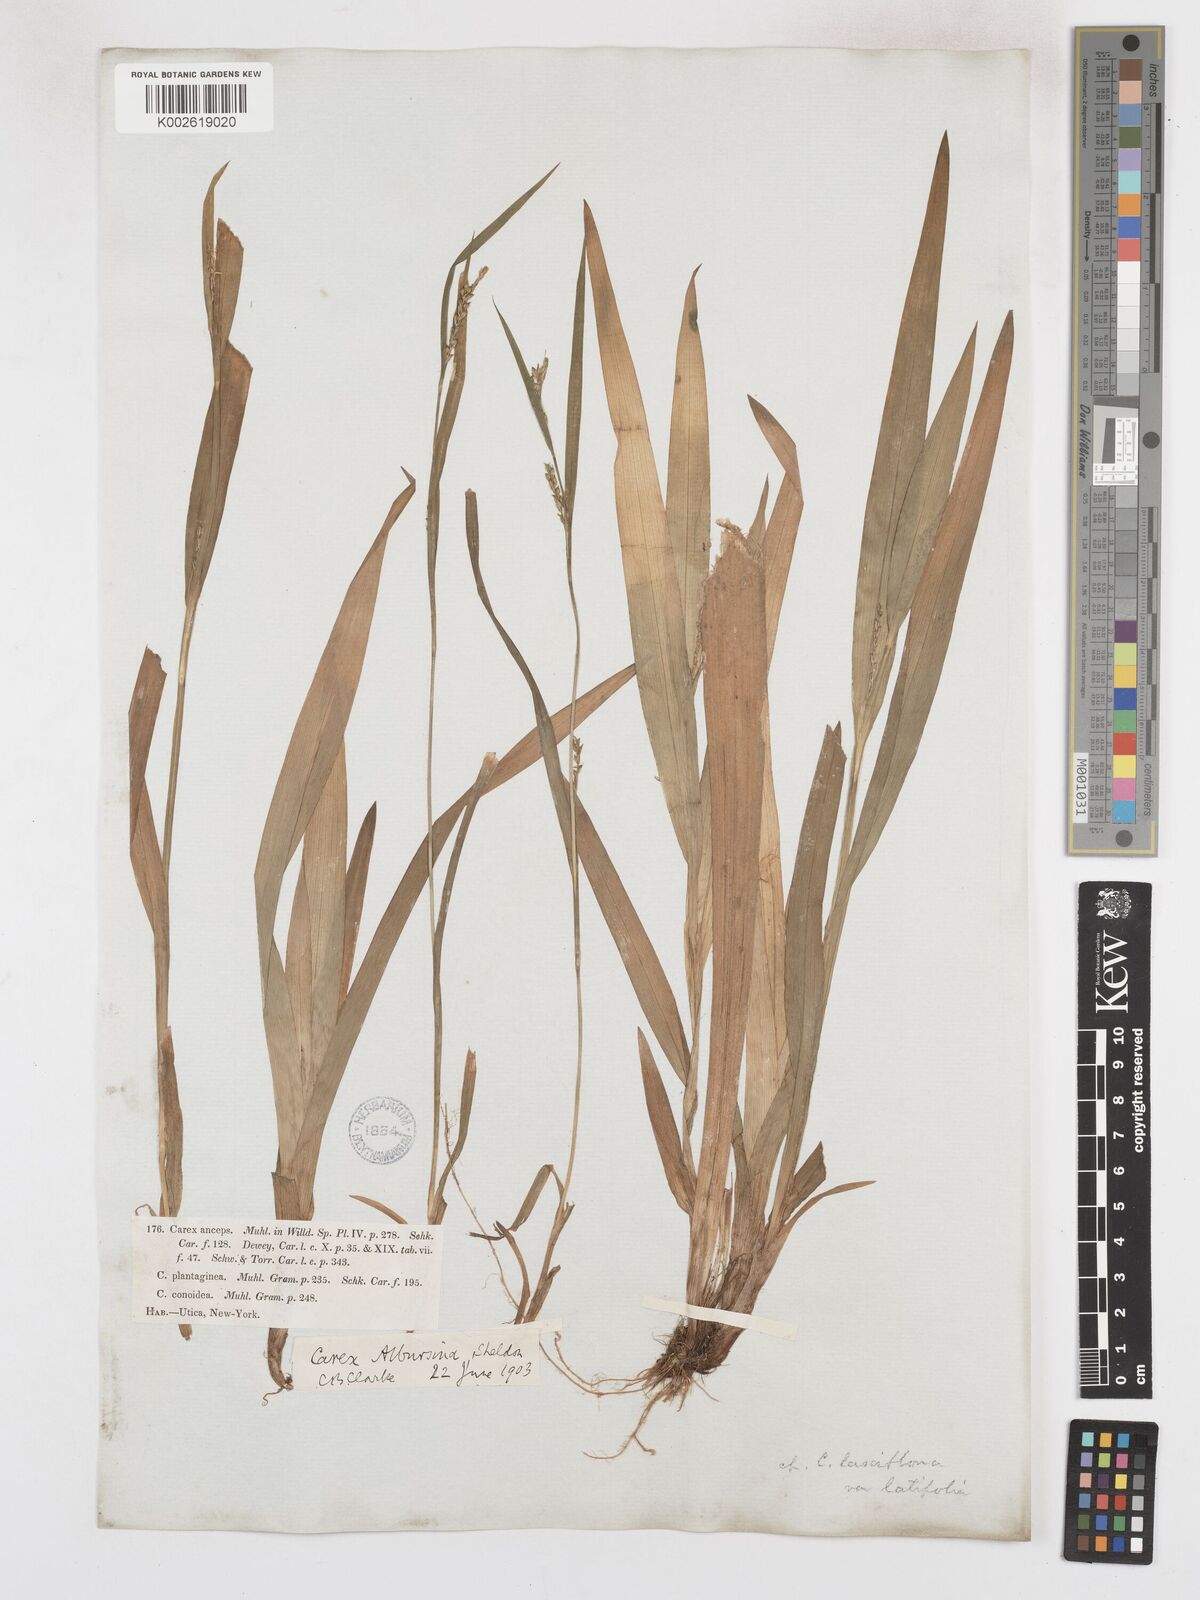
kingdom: Plantae
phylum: Tracheophyta
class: Liliopsida
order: Poales
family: Cyperaceae
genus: Carex
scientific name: Carex albursina
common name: Blunt-scale wood sedge
